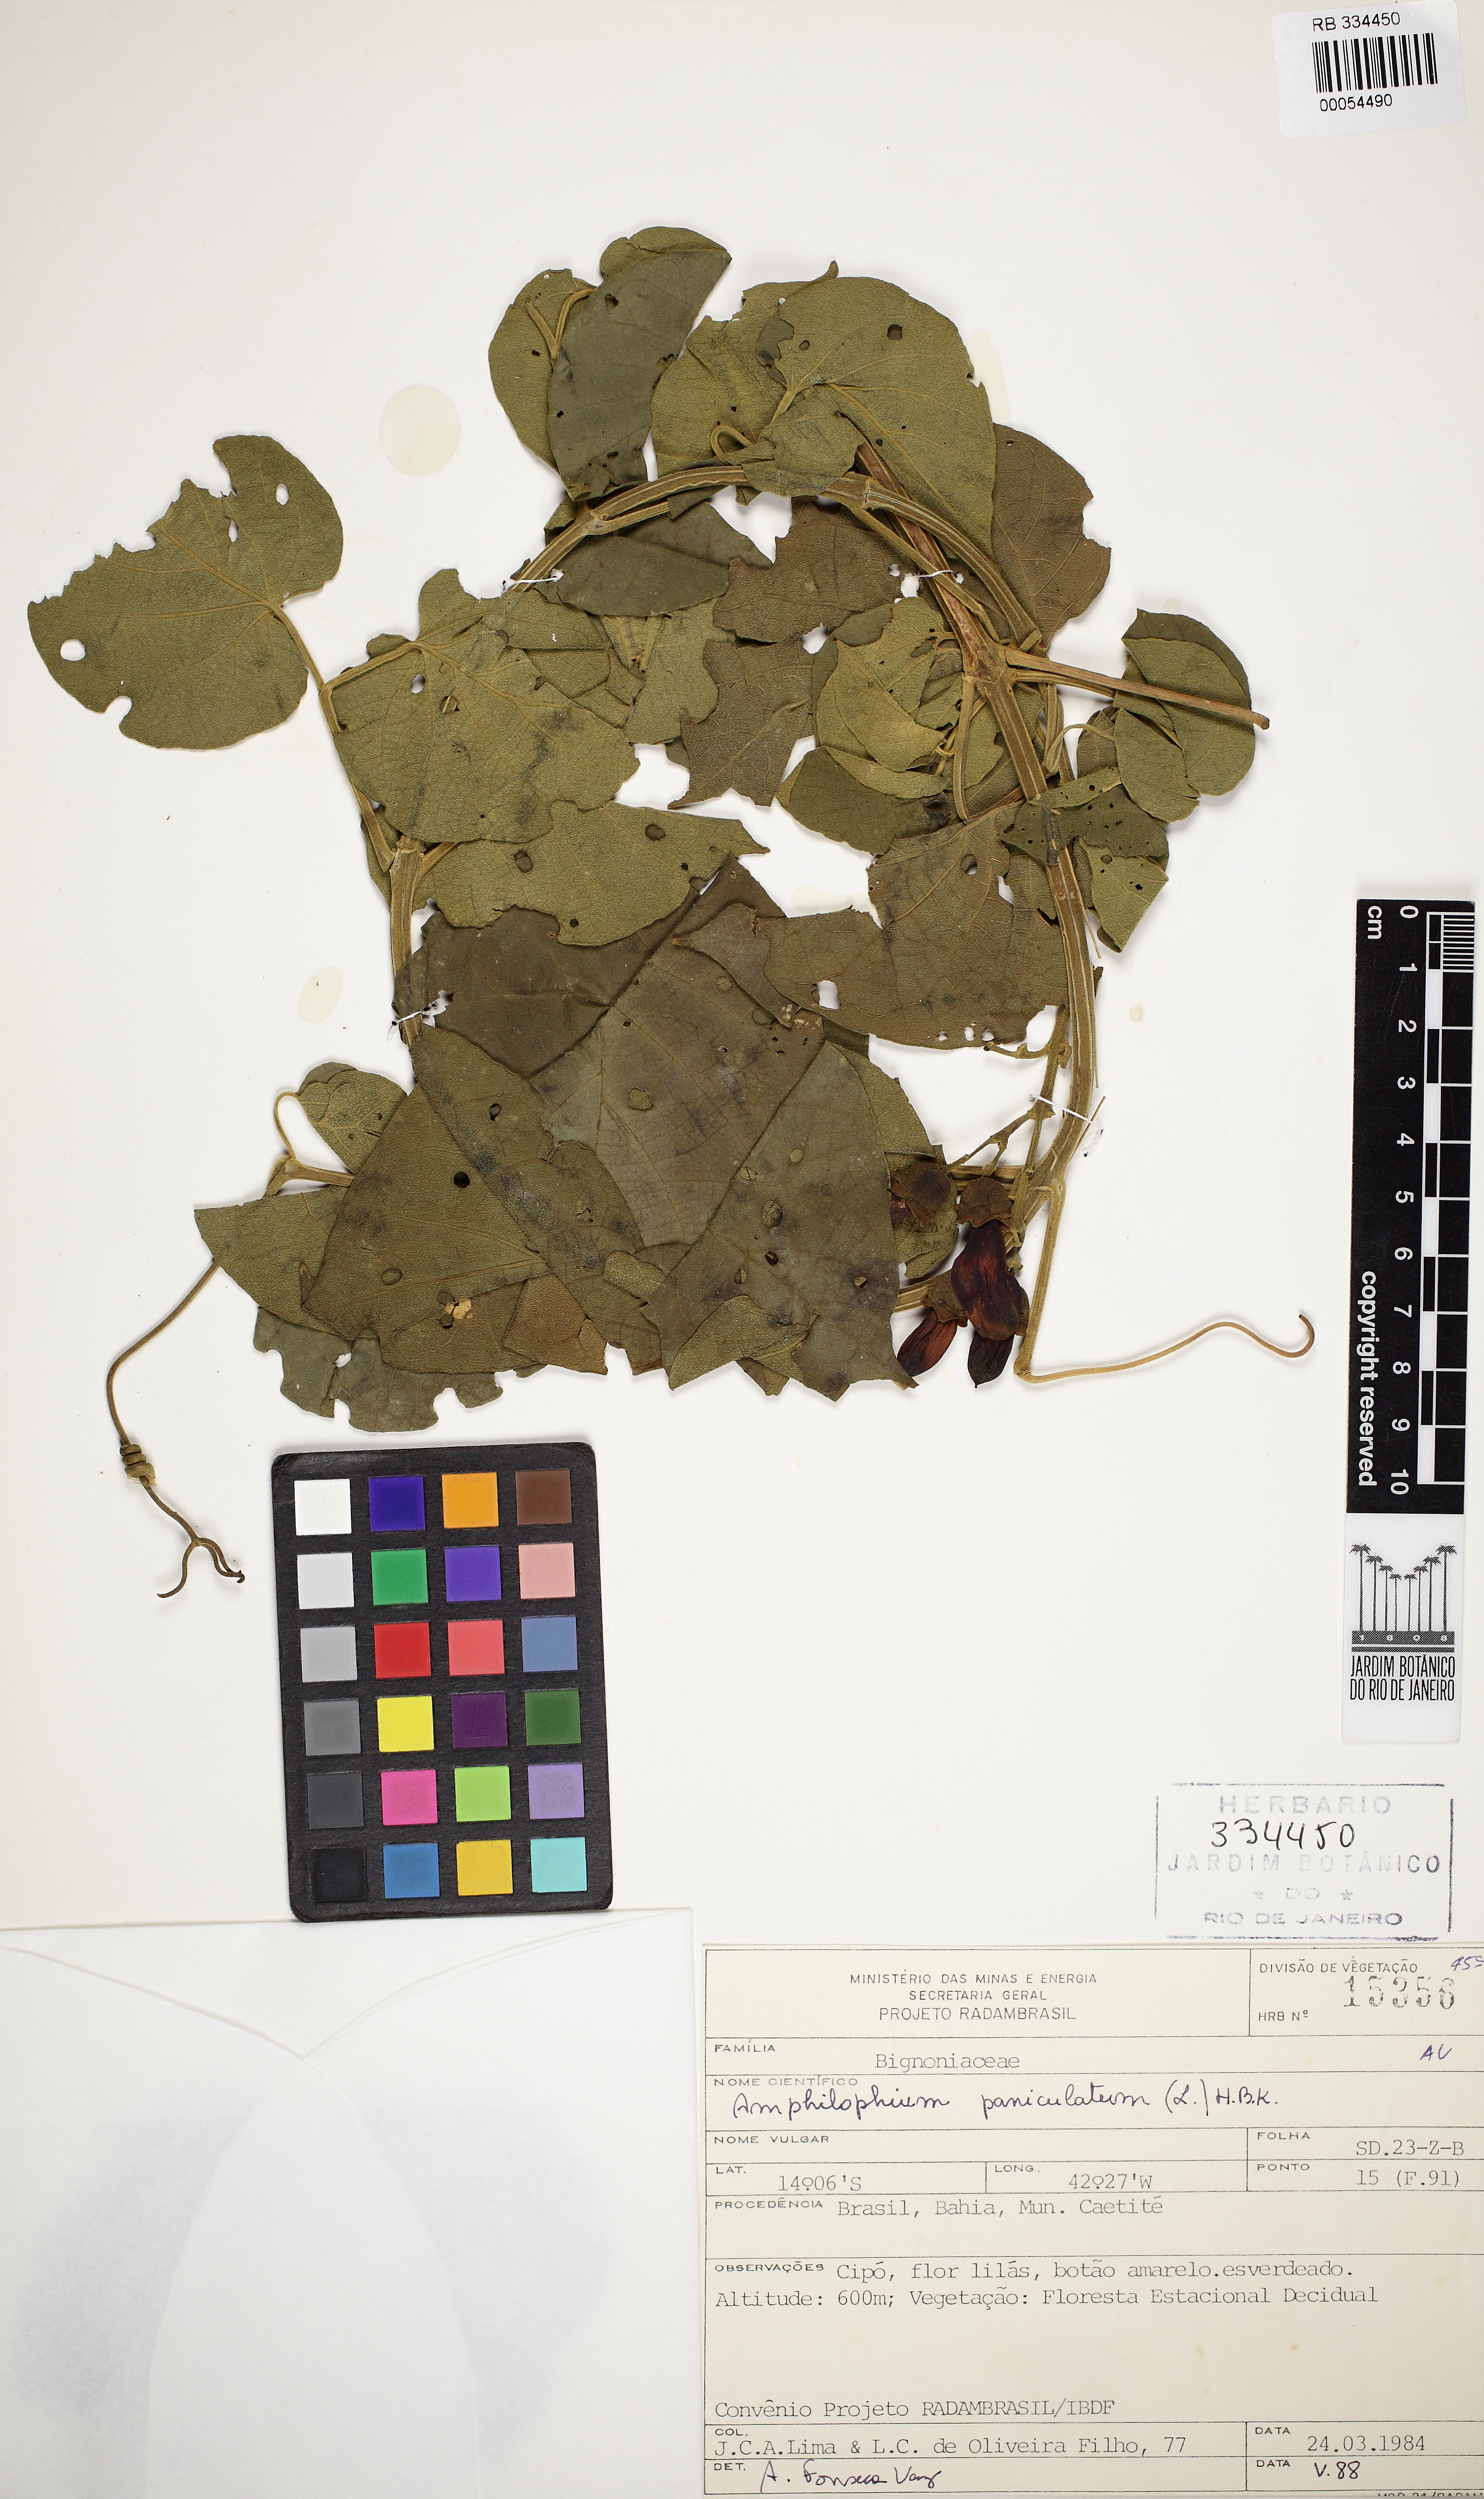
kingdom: Plantae
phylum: Tracheophyta
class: Magnoliopsida
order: Lamiales
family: Bignoniaceae
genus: Amphilophium
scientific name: Amphilophium paniculatum
